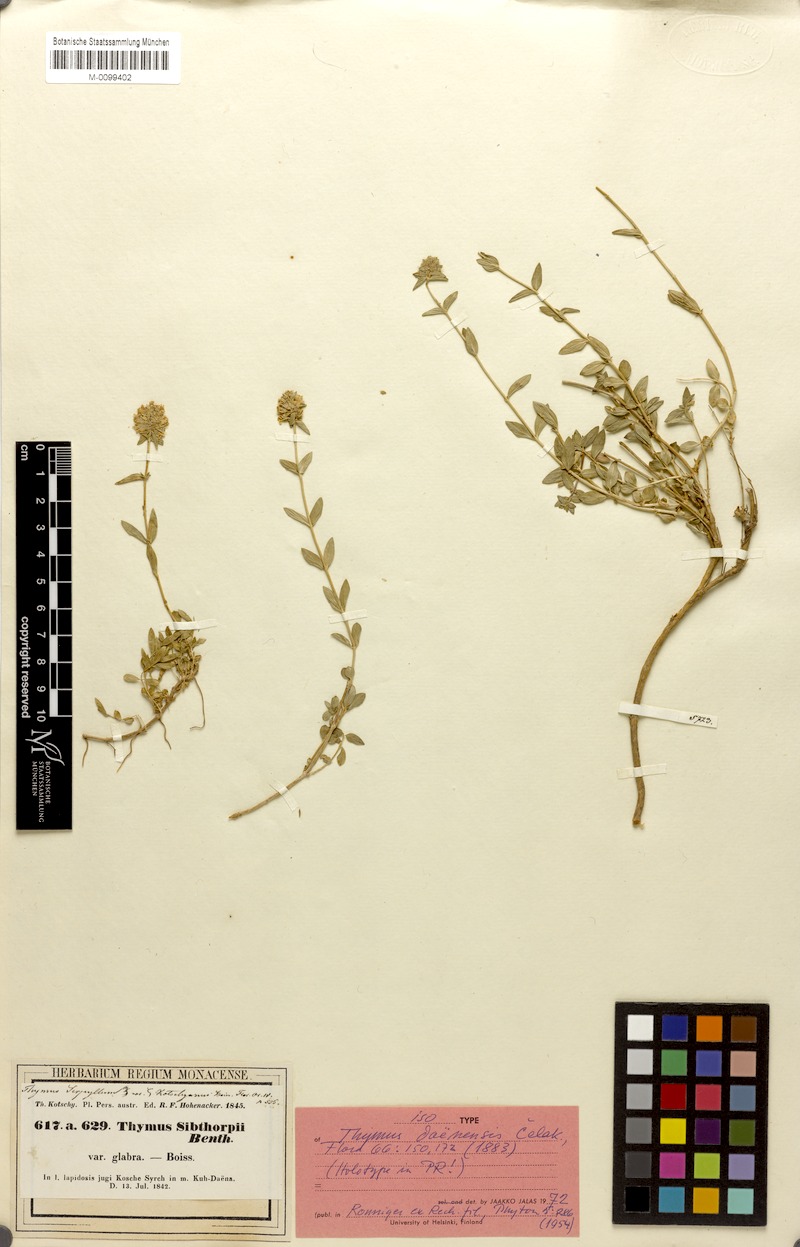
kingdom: Plantae
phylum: Tracheophyta
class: Magnoliopsida
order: Lamiales
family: Lamiaceae
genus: Thymus
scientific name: Thymus daenensis
